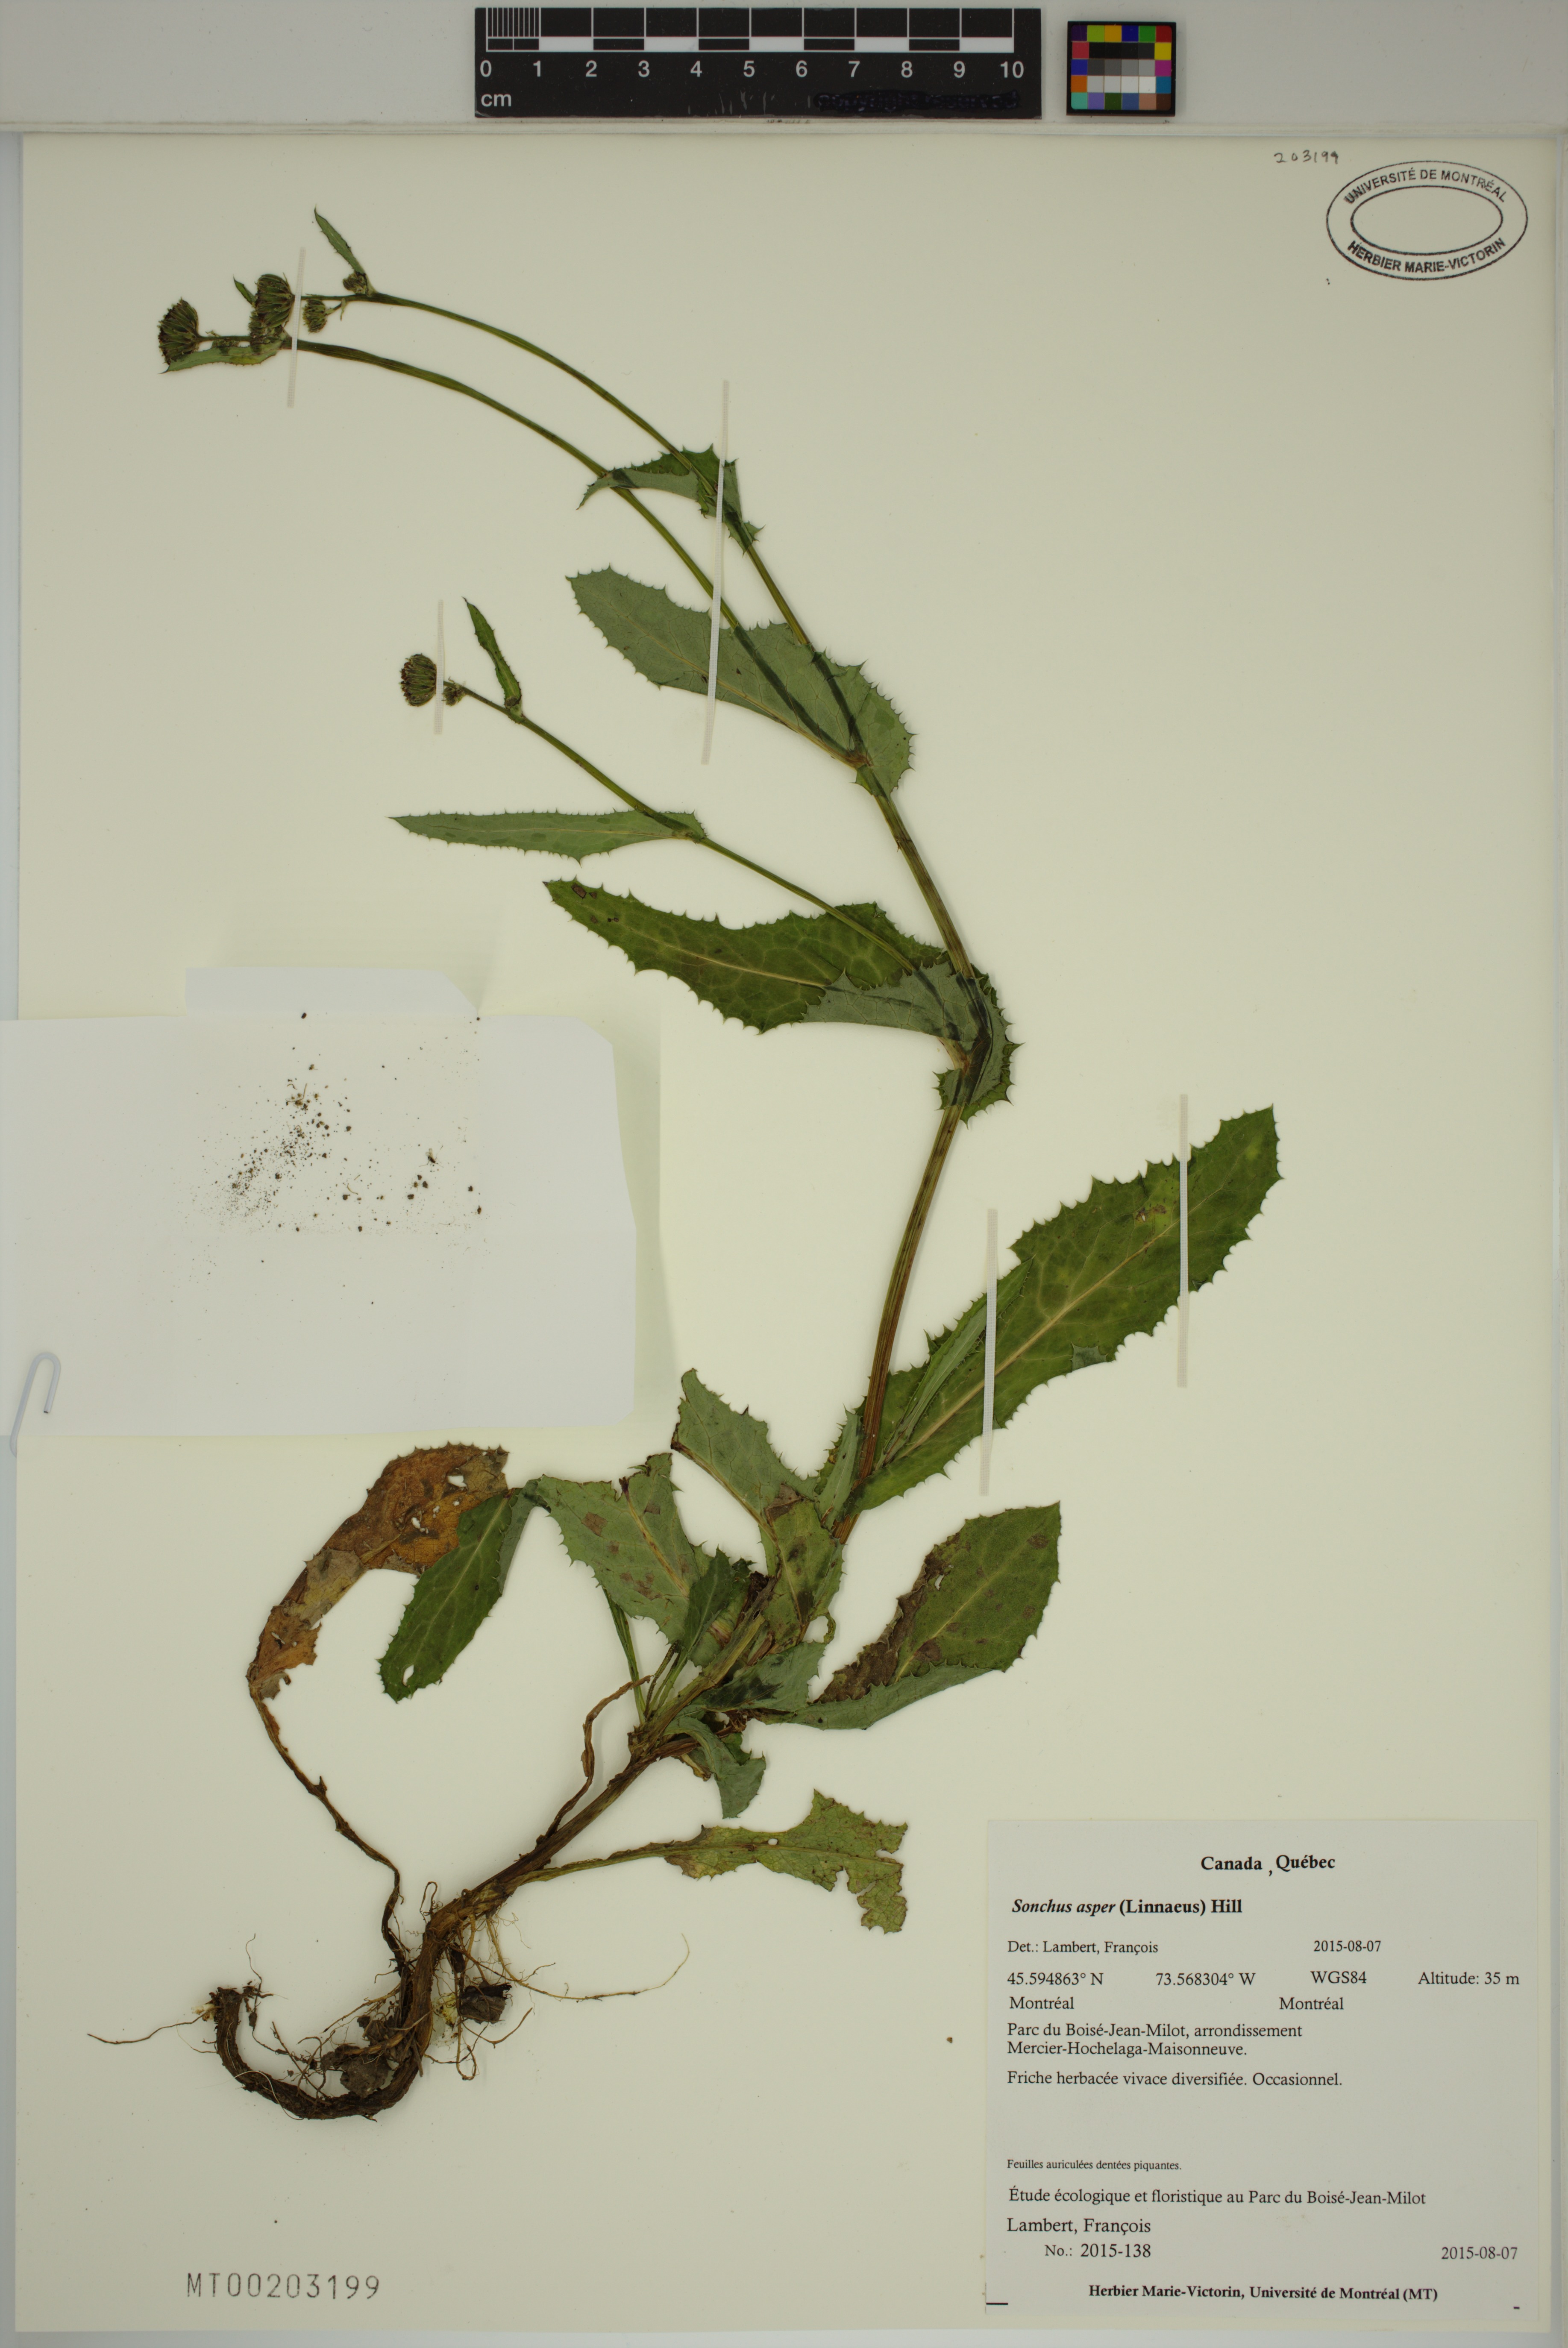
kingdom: Plantae
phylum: Tracheophyta
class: Magnoliopsida
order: Asterales
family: Asteraceae
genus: Sonchus
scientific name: Sonchus asper
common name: Prickly sow-thistle
